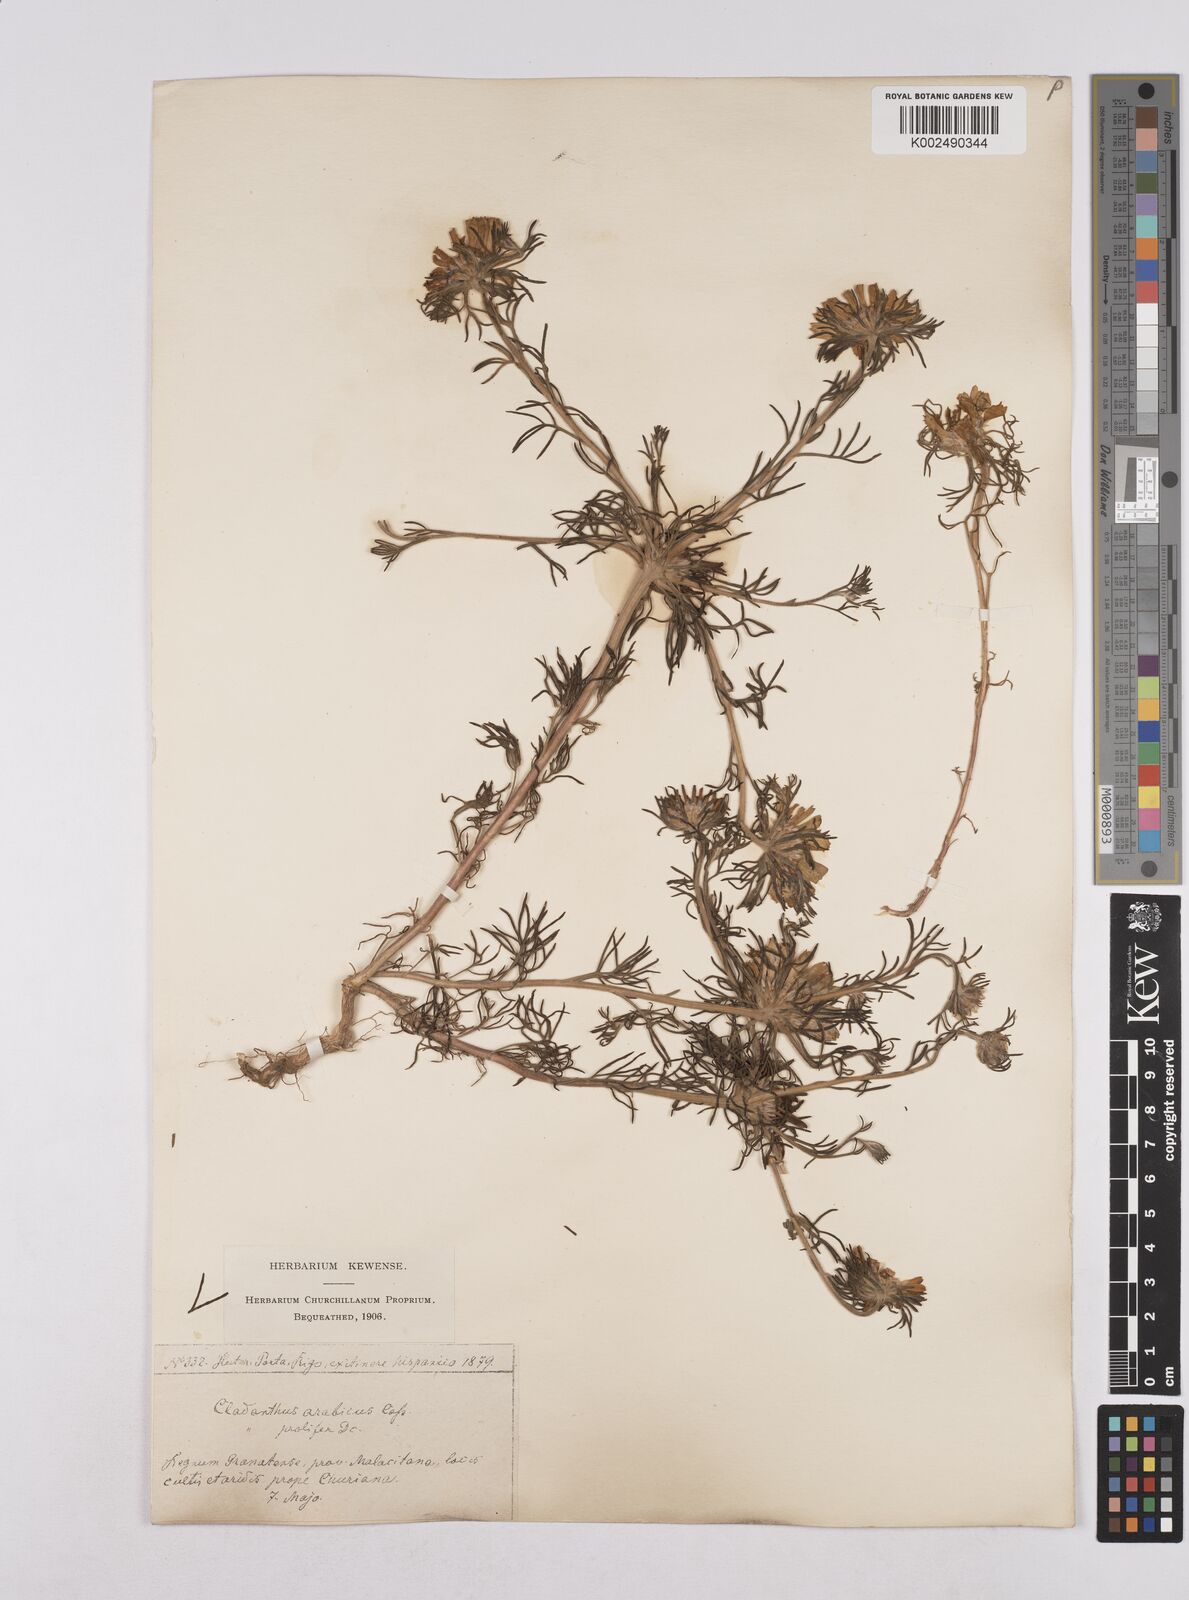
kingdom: Plantae
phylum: Tracheophyta
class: Magnoliopsida
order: Asterales
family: Asteraceae
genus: Cladanthus
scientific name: Cladanthus arabicus
